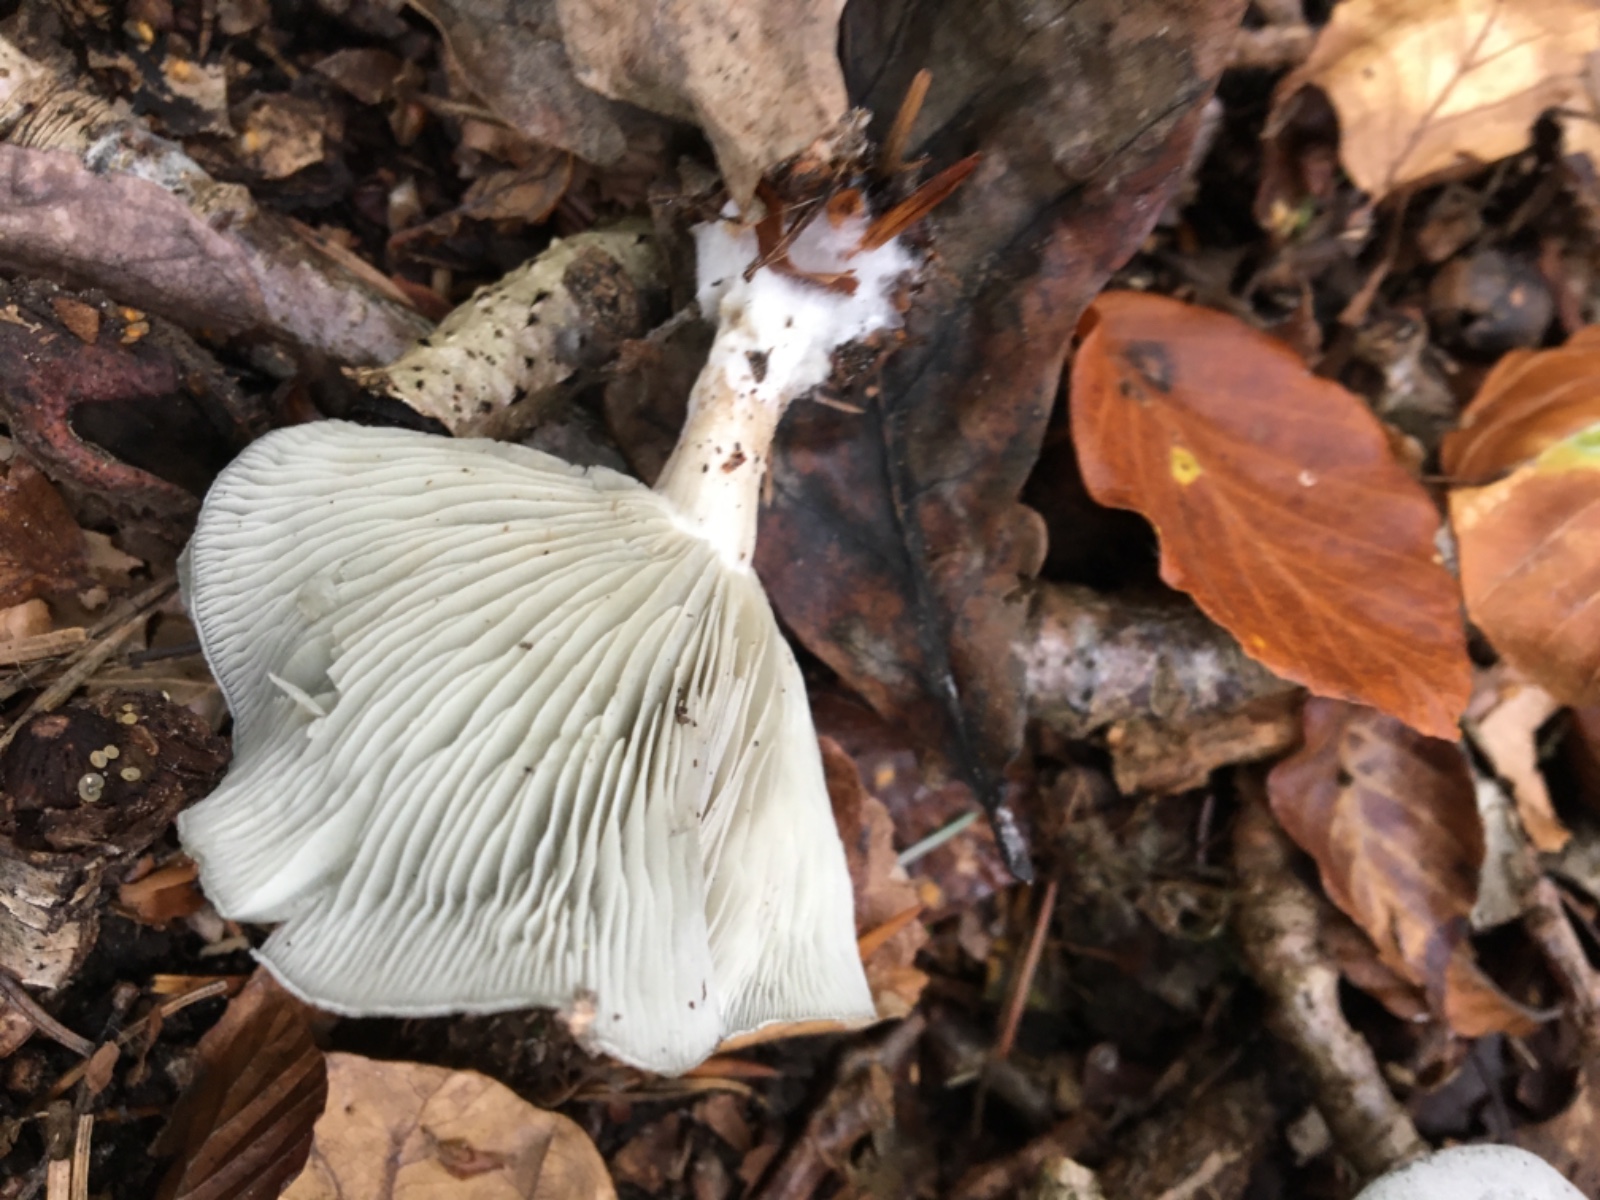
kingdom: Fungi
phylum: Basidiomycota
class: Agaricomycetes
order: Agaricales
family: Tricholomataceae
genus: Clitocybe
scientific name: Clitocybe odora
